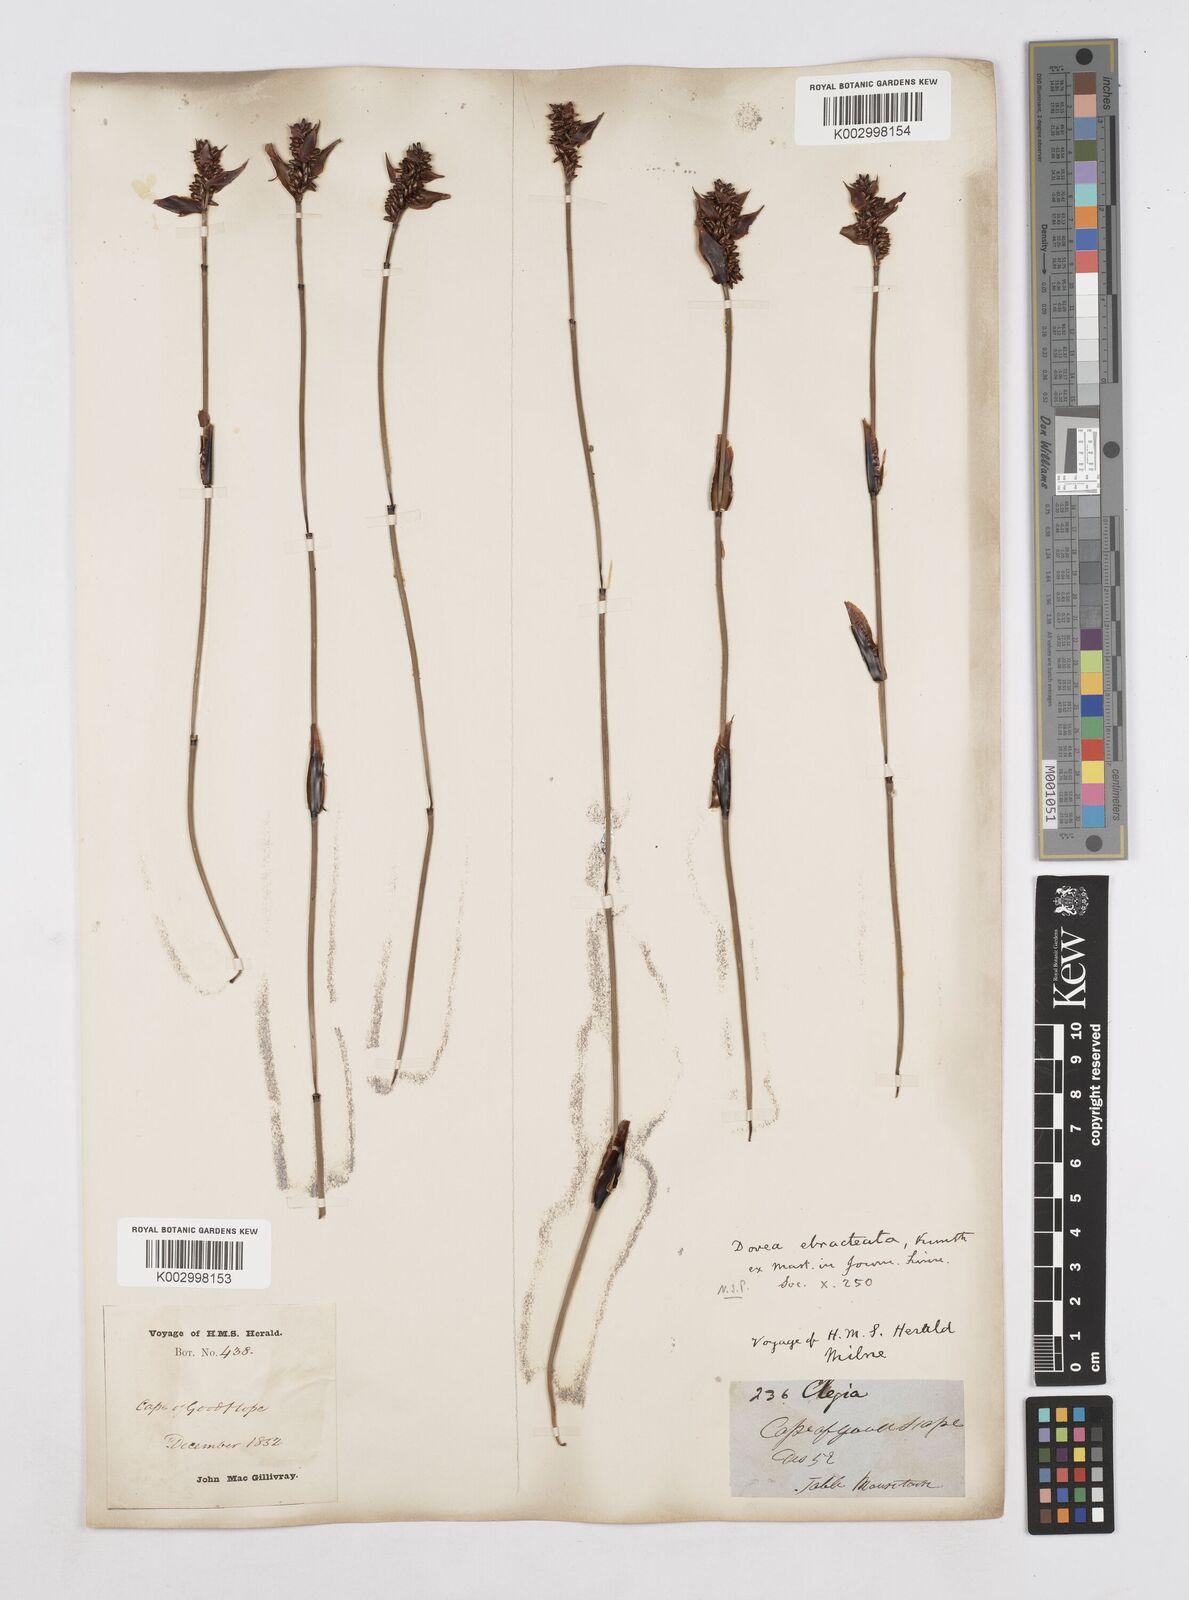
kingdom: Plantae
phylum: Tracheophyta
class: Liliopsida
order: Poales
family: Restionaceae
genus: Elegia
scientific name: Elegia hookeriana
